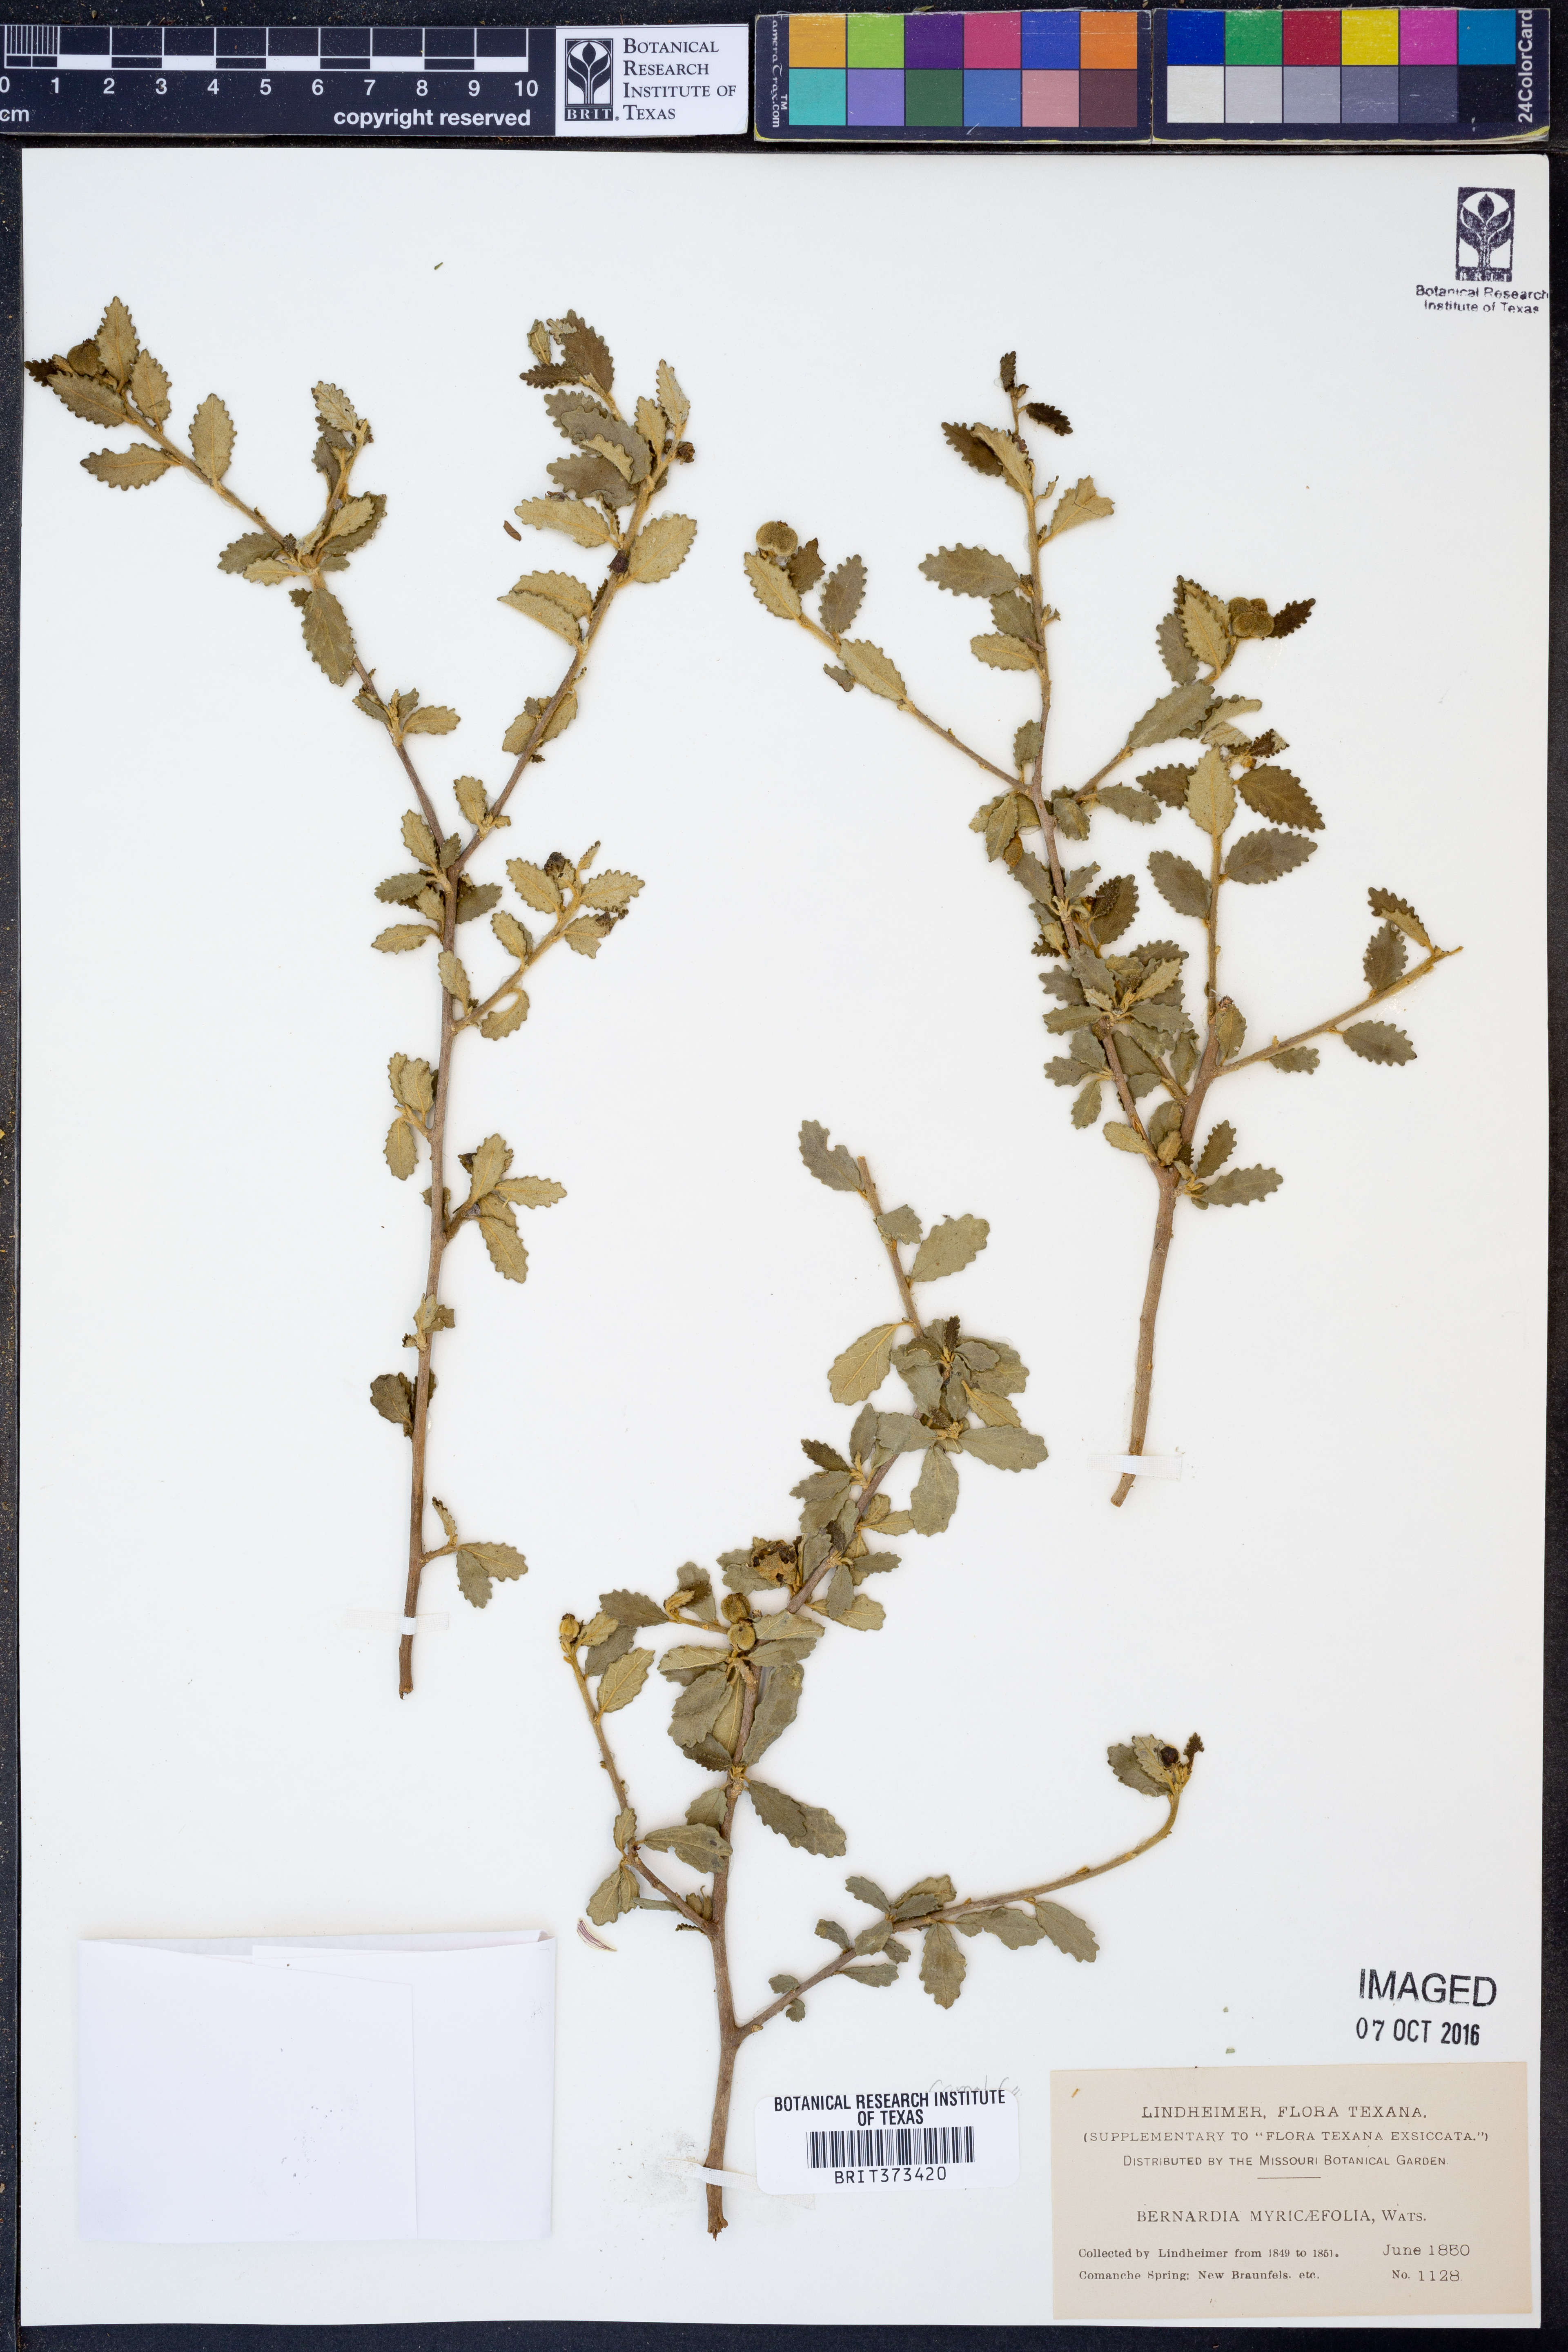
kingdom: Plantae
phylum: Tracheophyta
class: Magnoliopsida
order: Malpighiales
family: Euphorbiaceae
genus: Bernardia
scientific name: Bernardia myricifolia
